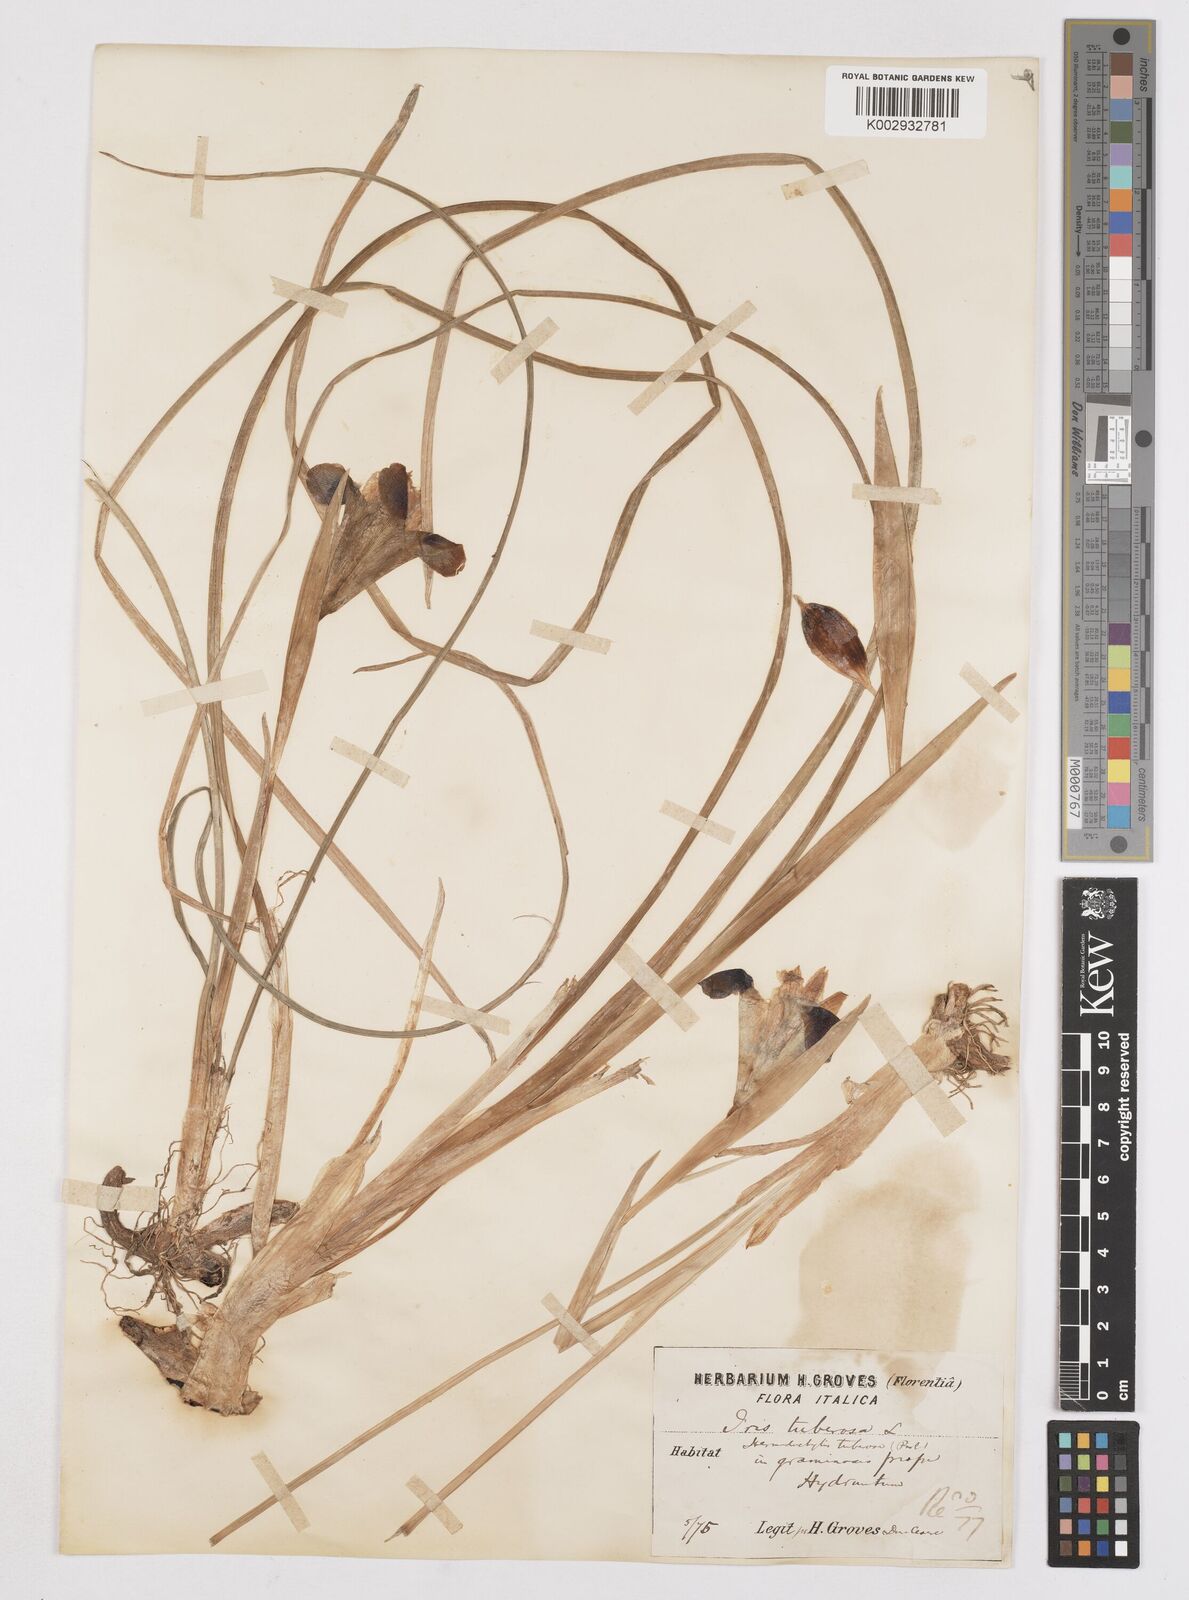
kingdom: Plantae
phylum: Tracheophyta
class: Liliopsida
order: Asparagales
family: Iridaceae
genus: Iris
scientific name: Iris tuberosa
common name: Snake's-head iris
